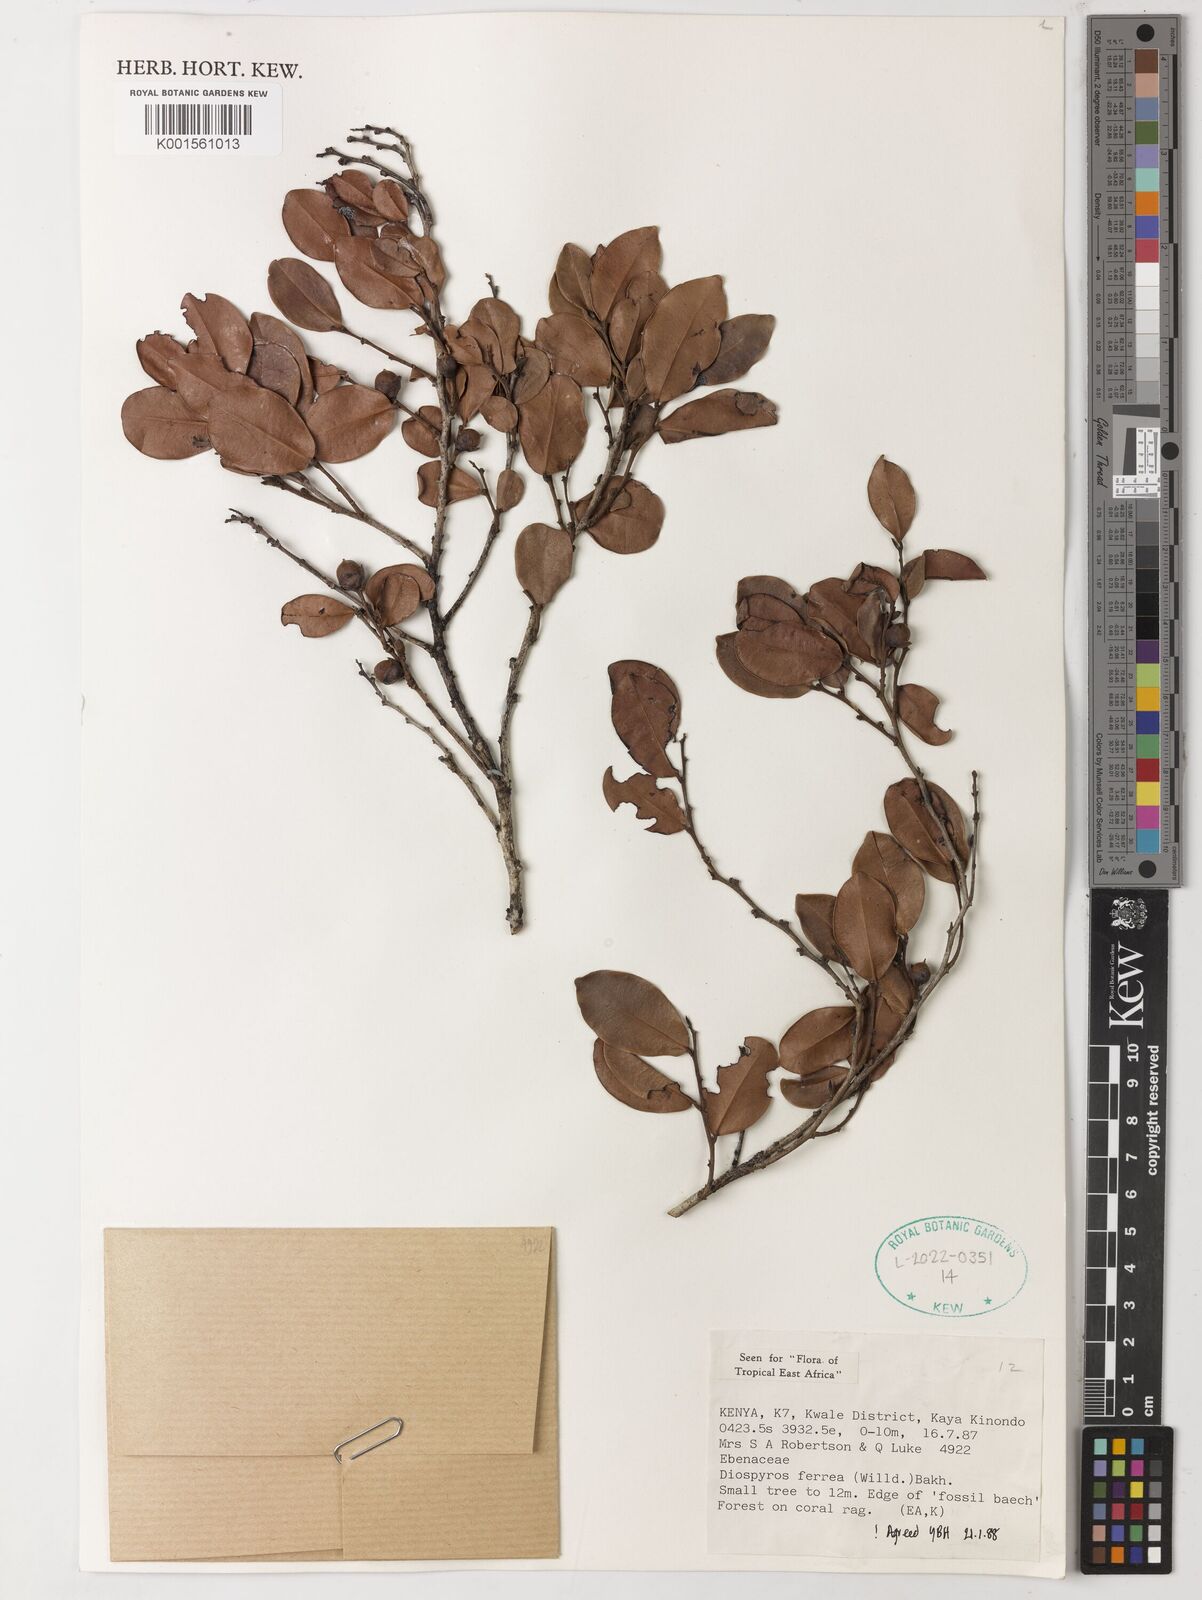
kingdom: Plantae
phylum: Tracheophyta
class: Magnoliopsida
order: Ericales
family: Ebenaceae
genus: Diospyros
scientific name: Diospyros ferrea
